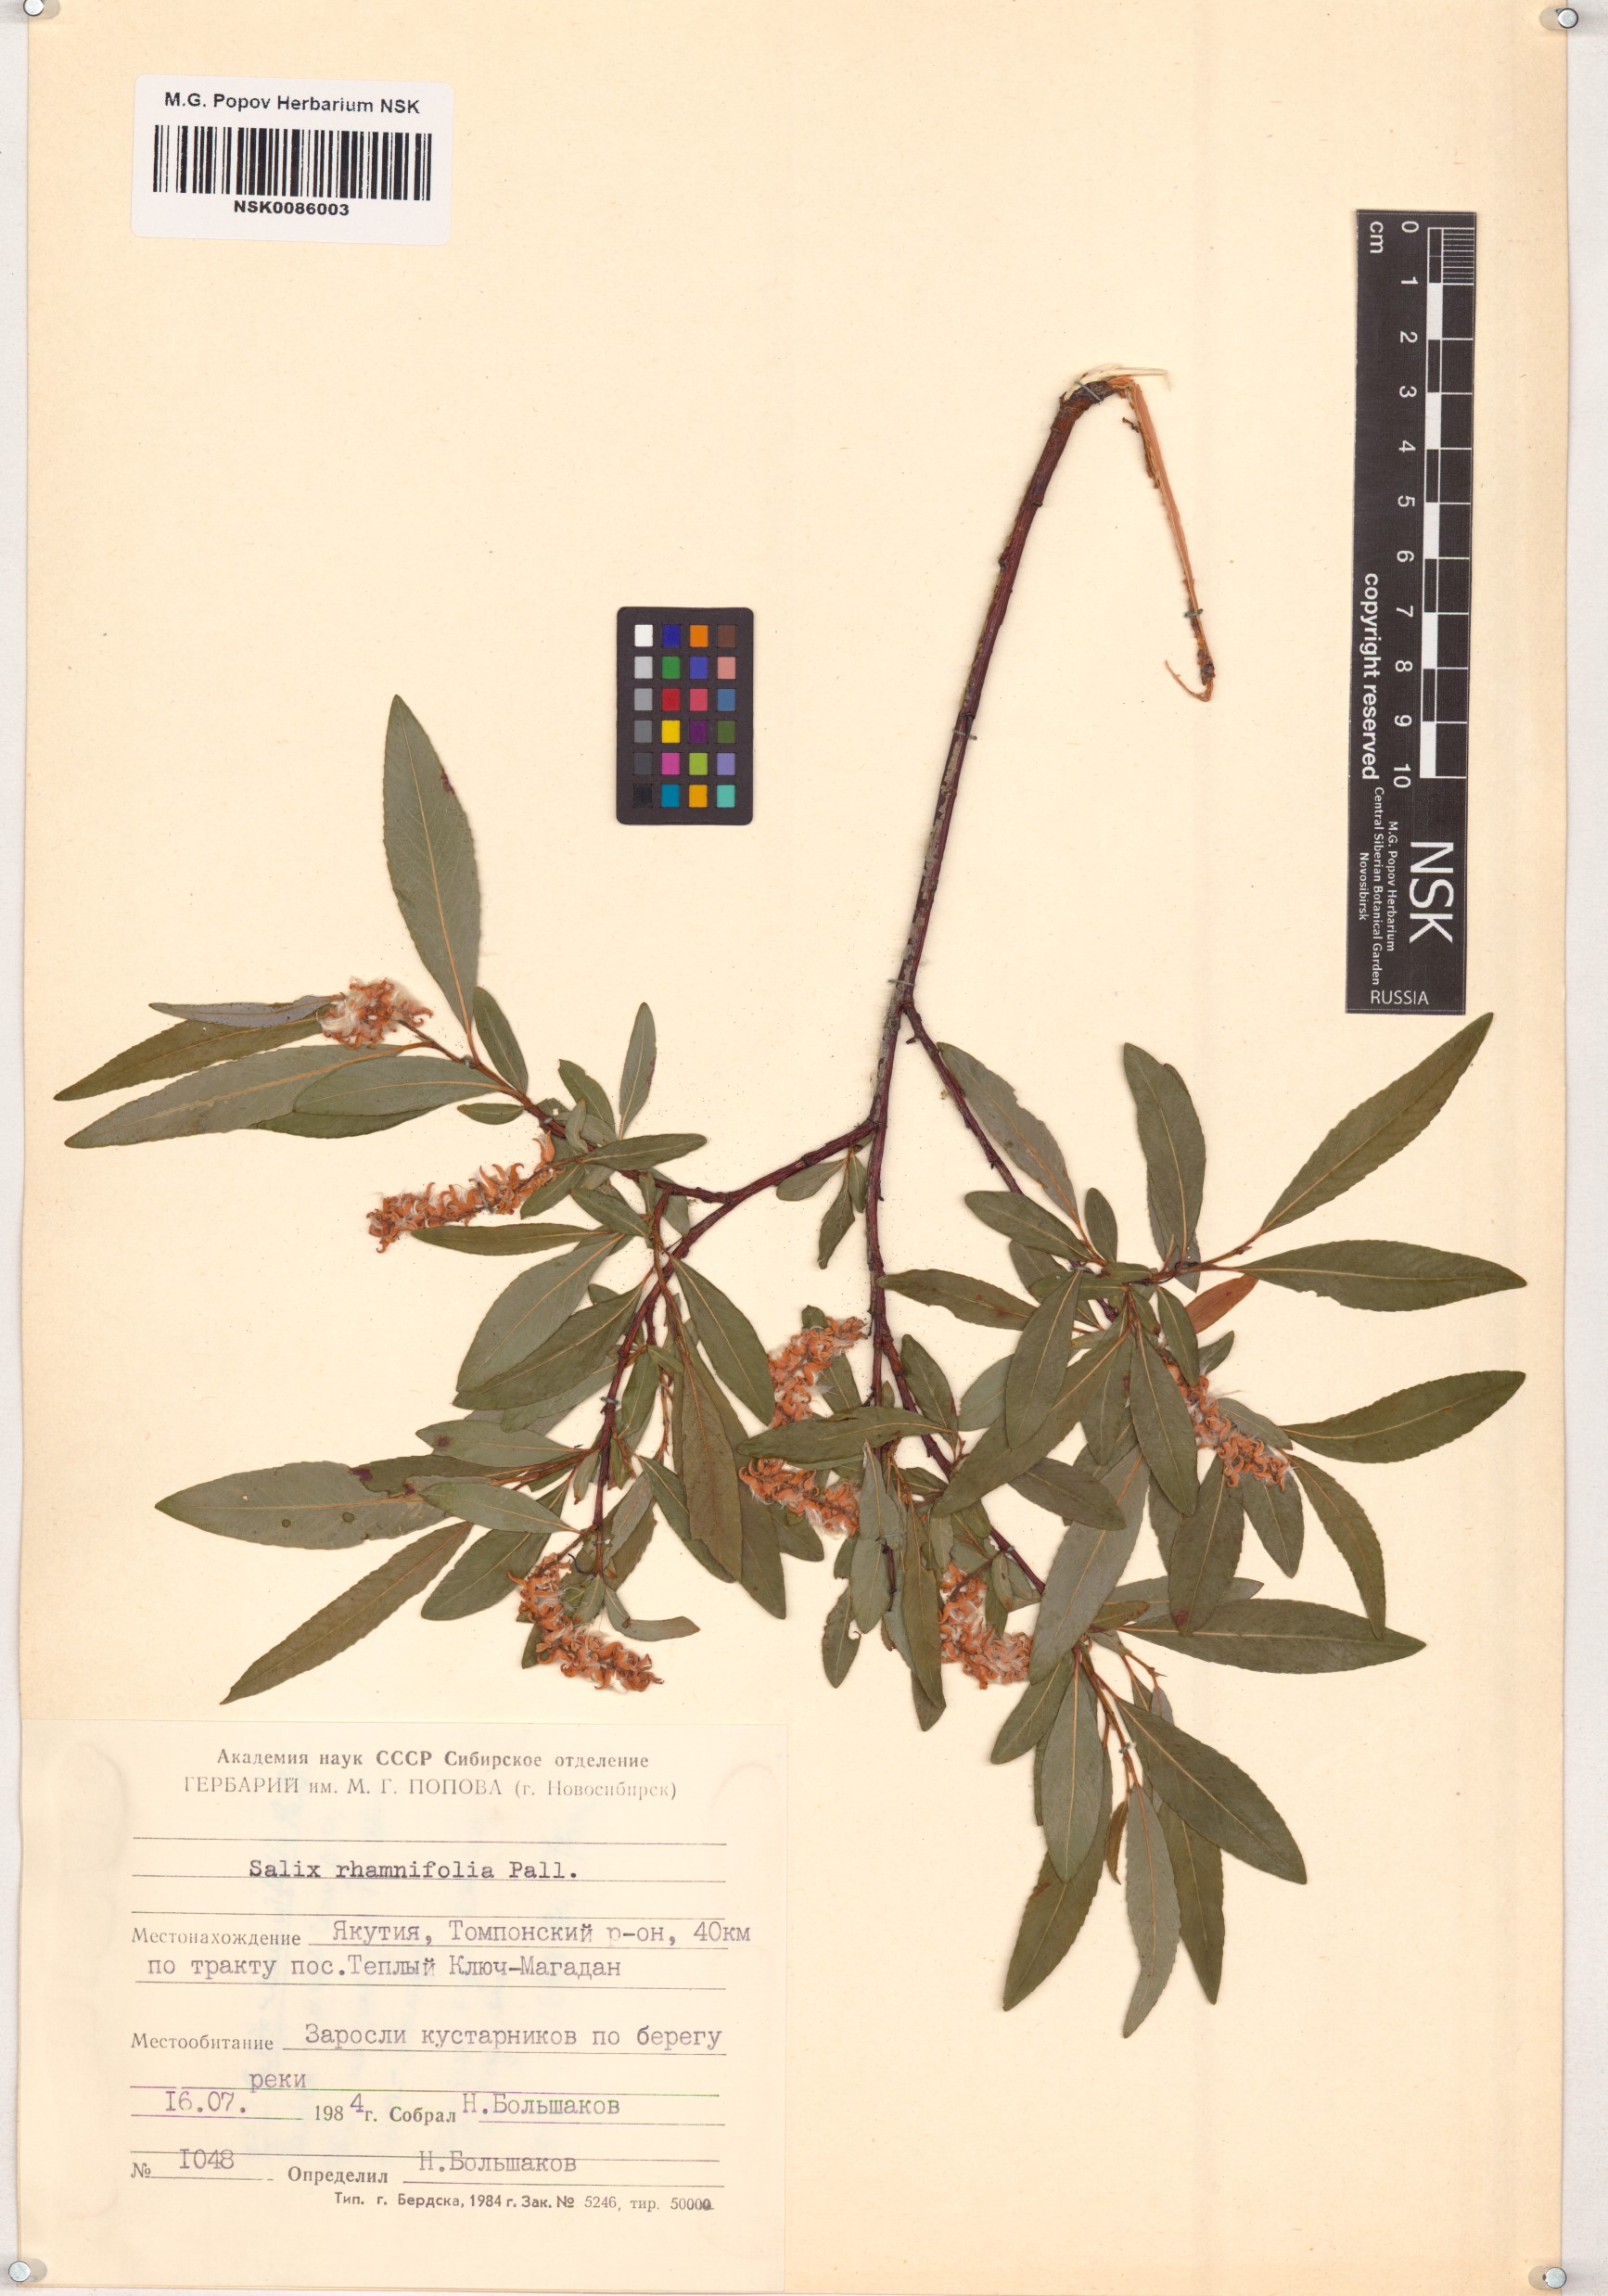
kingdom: Plantae
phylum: Tracheophyta
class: Magnoliopsida
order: Malpighiales
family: Salicaceae
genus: Salix
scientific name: Salix rhamnifolia
